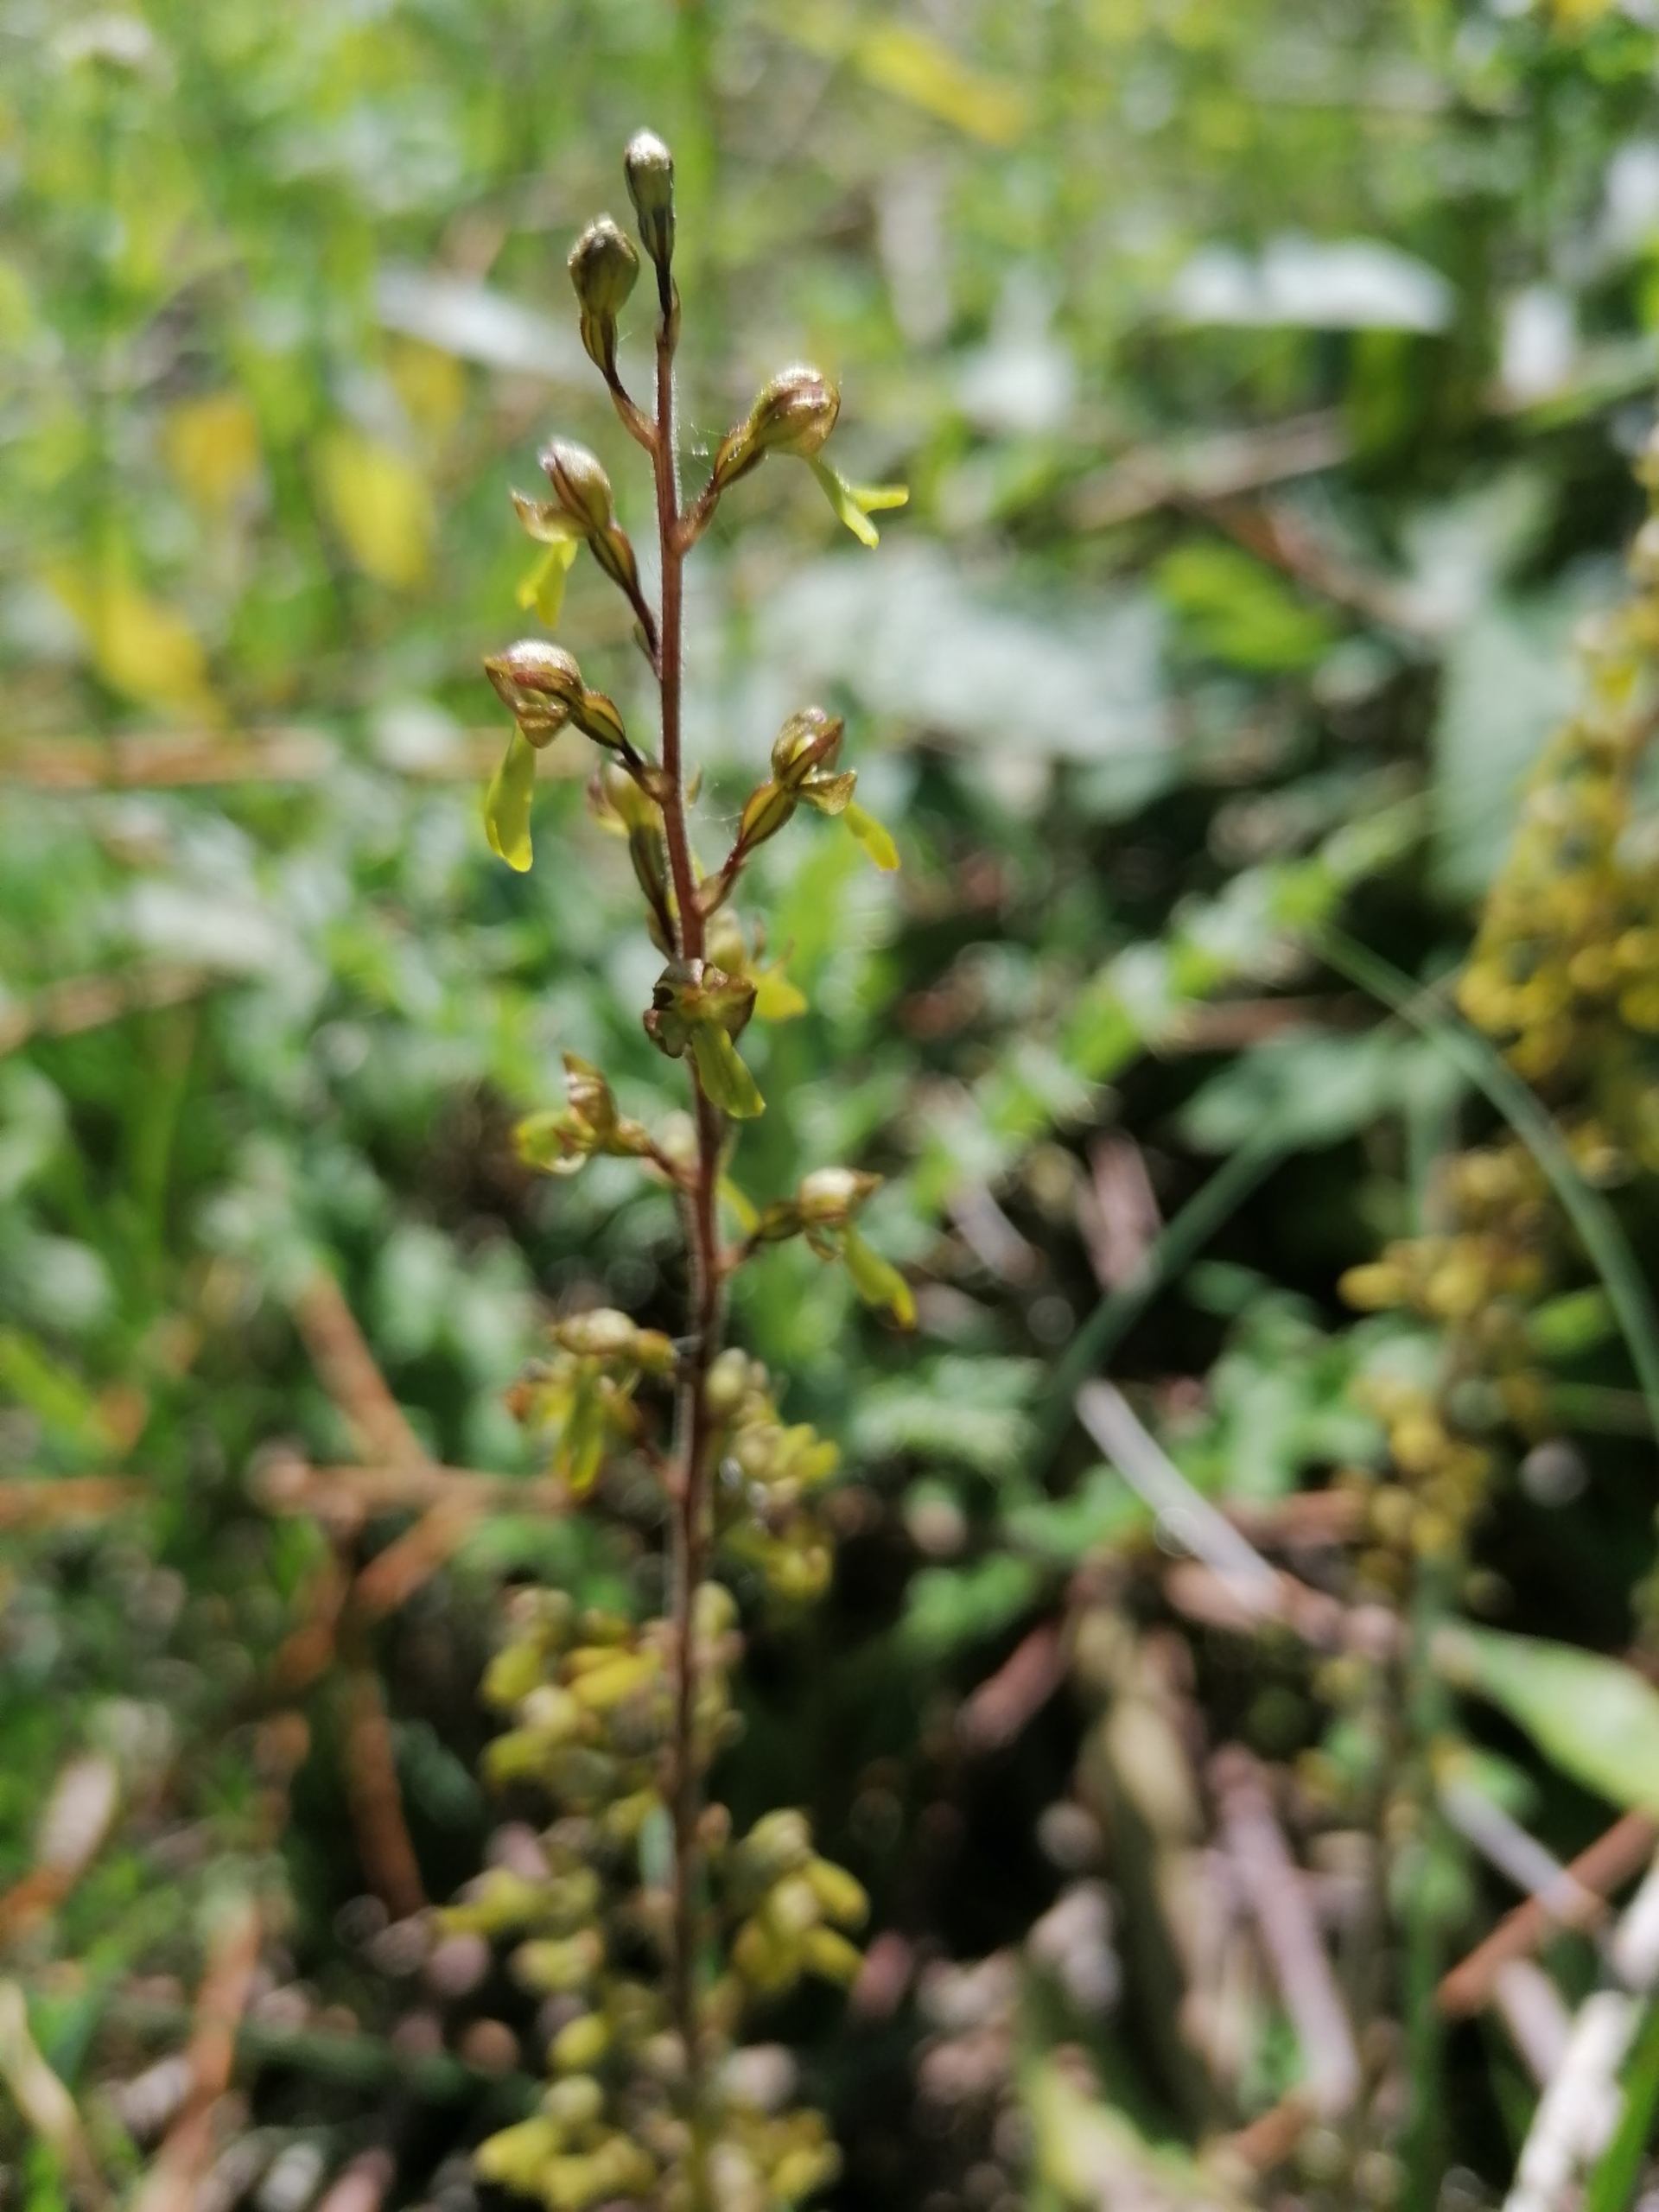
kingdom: Plantae
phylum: Tracheophyta
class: Liliopsida
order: Asparagales
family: Orchidaceae
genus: Neottia
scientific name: Neottia ovata
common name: Ægbladet fliglæbe
